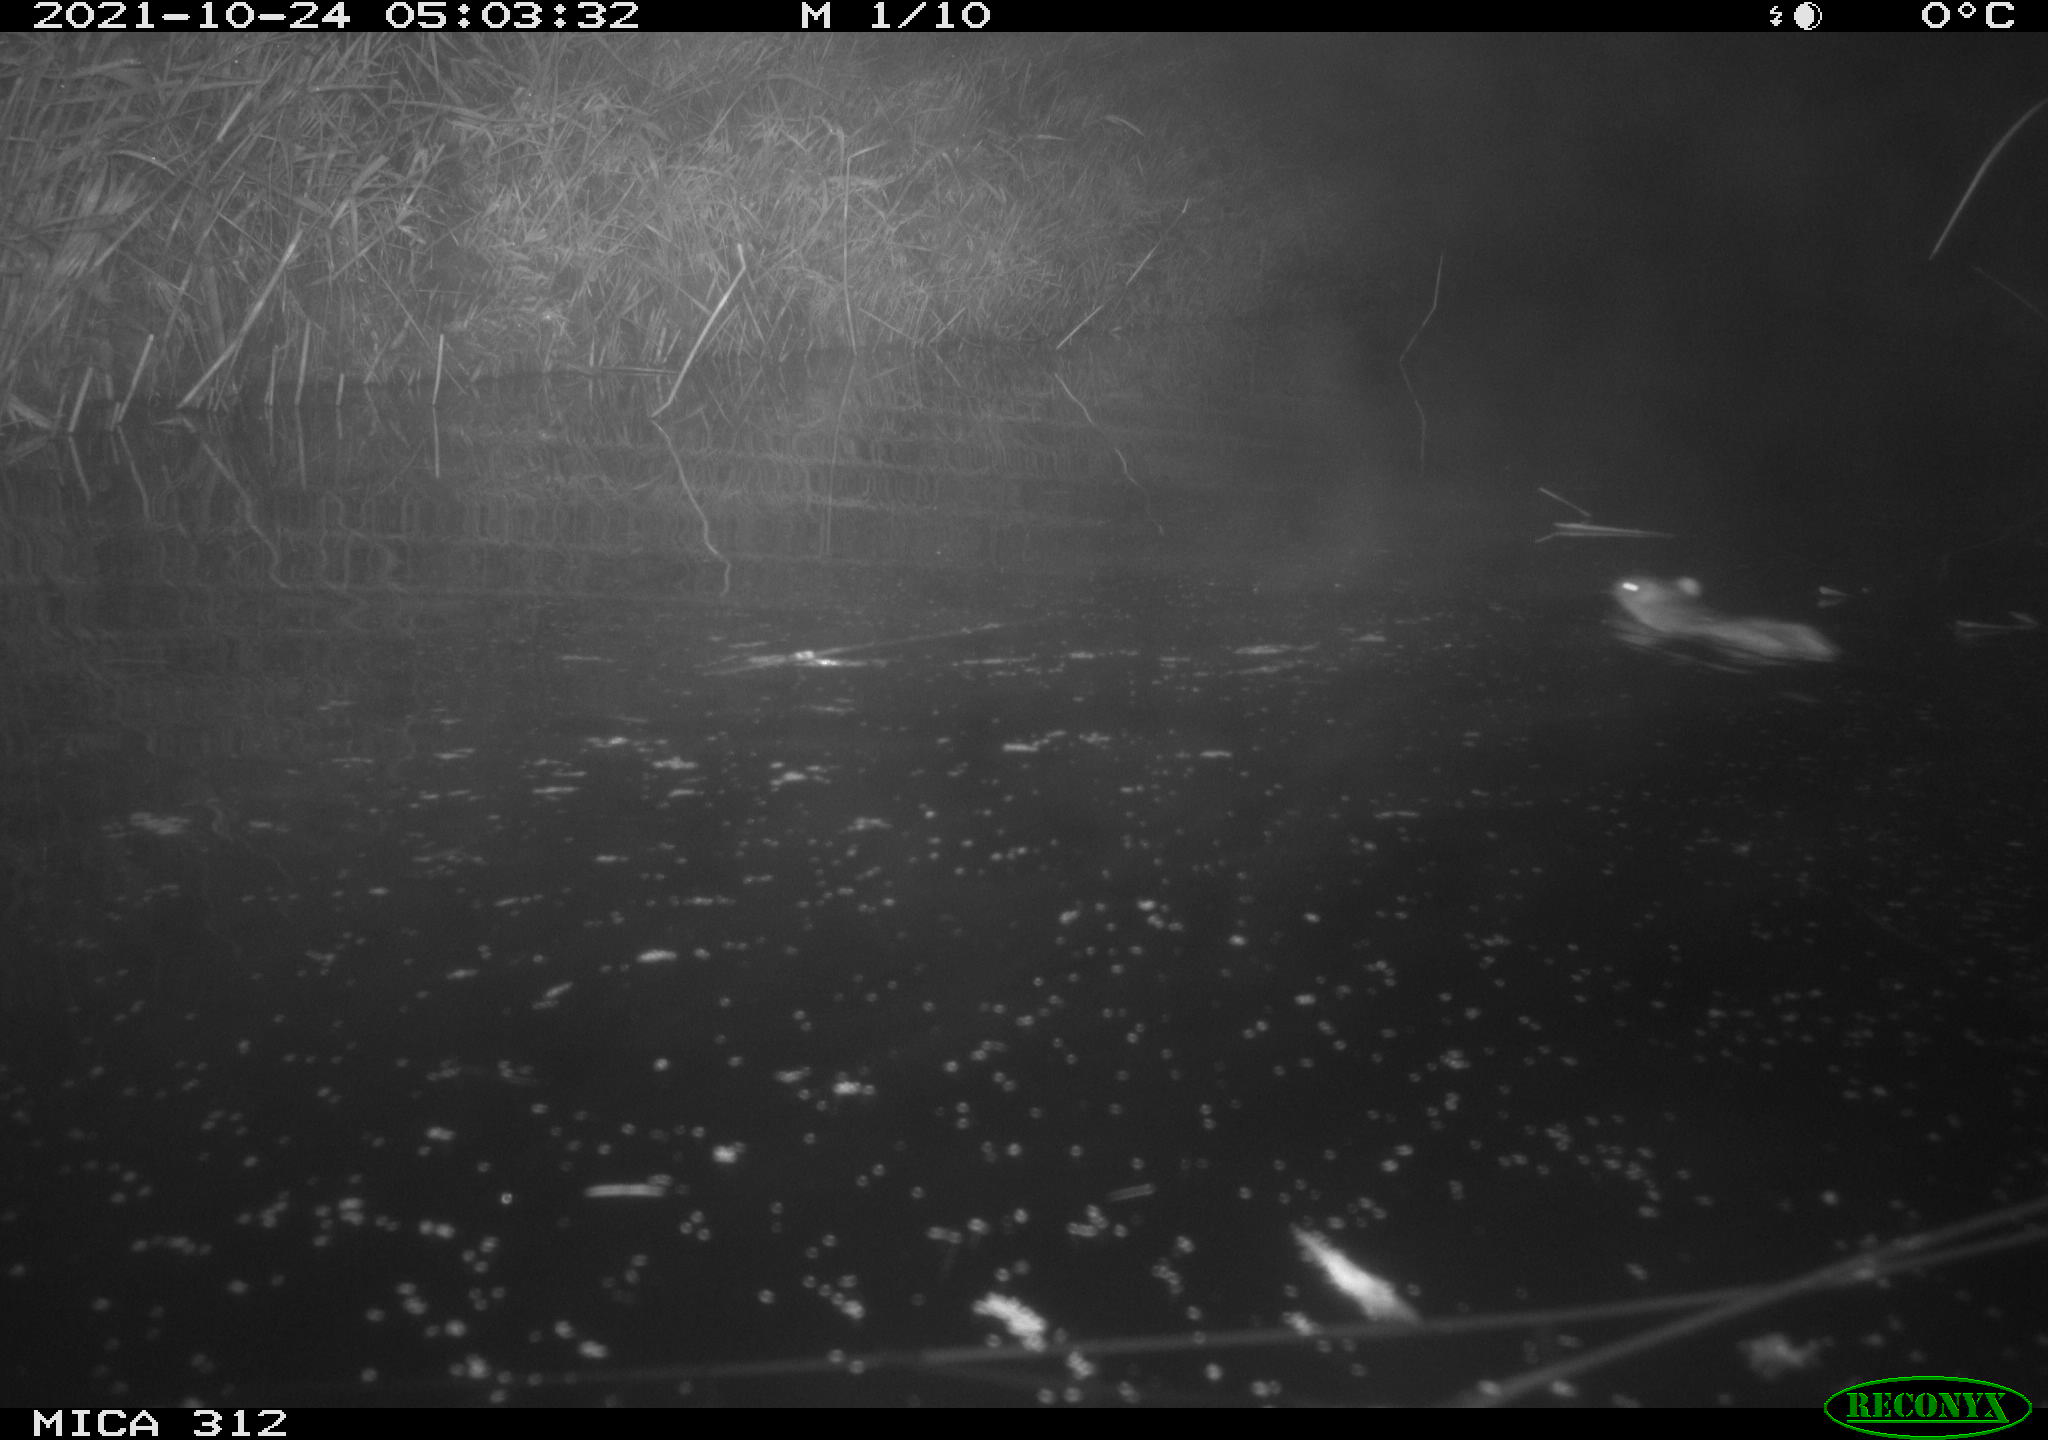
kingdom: Animalia
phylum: Chordata
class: Mammalia
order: Rodentia
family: Muridae
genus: Rattus
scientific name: Rattus norvegicus
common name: Brown rat
